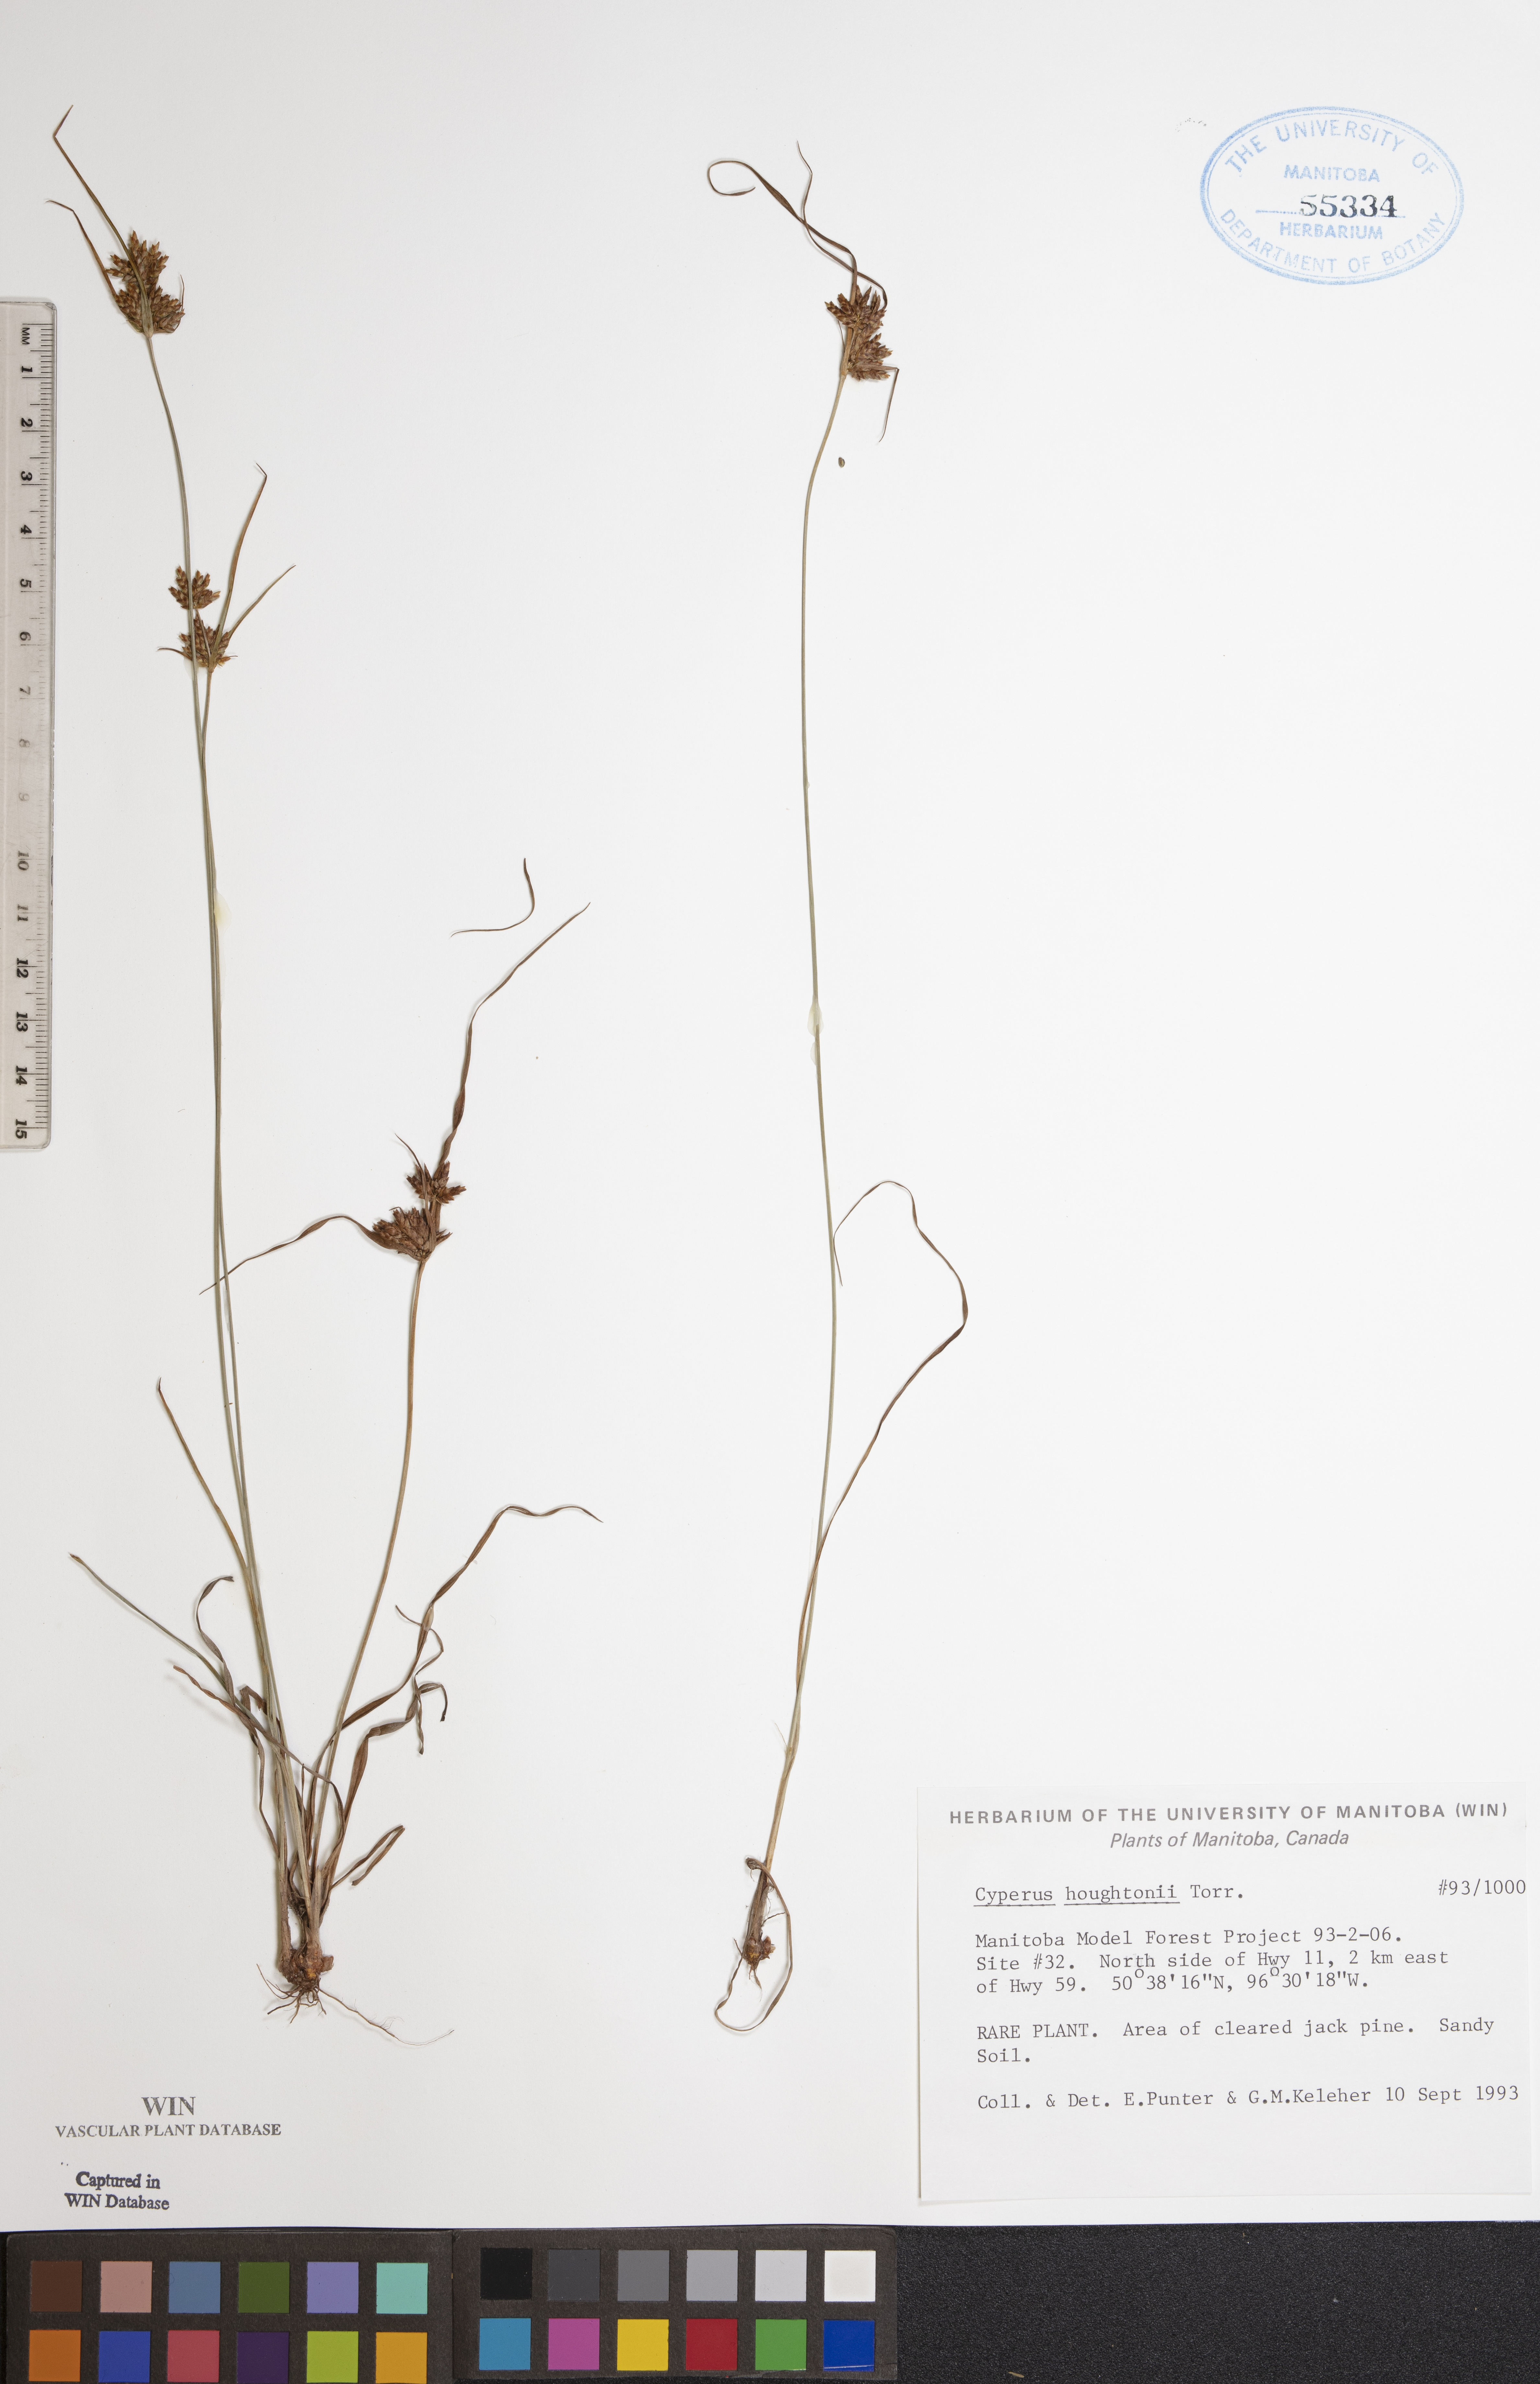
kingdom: Plantae
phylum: Tracheophyta
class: Liliopsida
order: Poales
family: Cyperaceae
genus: Cyperus
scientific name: Cyperus houghtonii
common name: Houghton's cyperus
